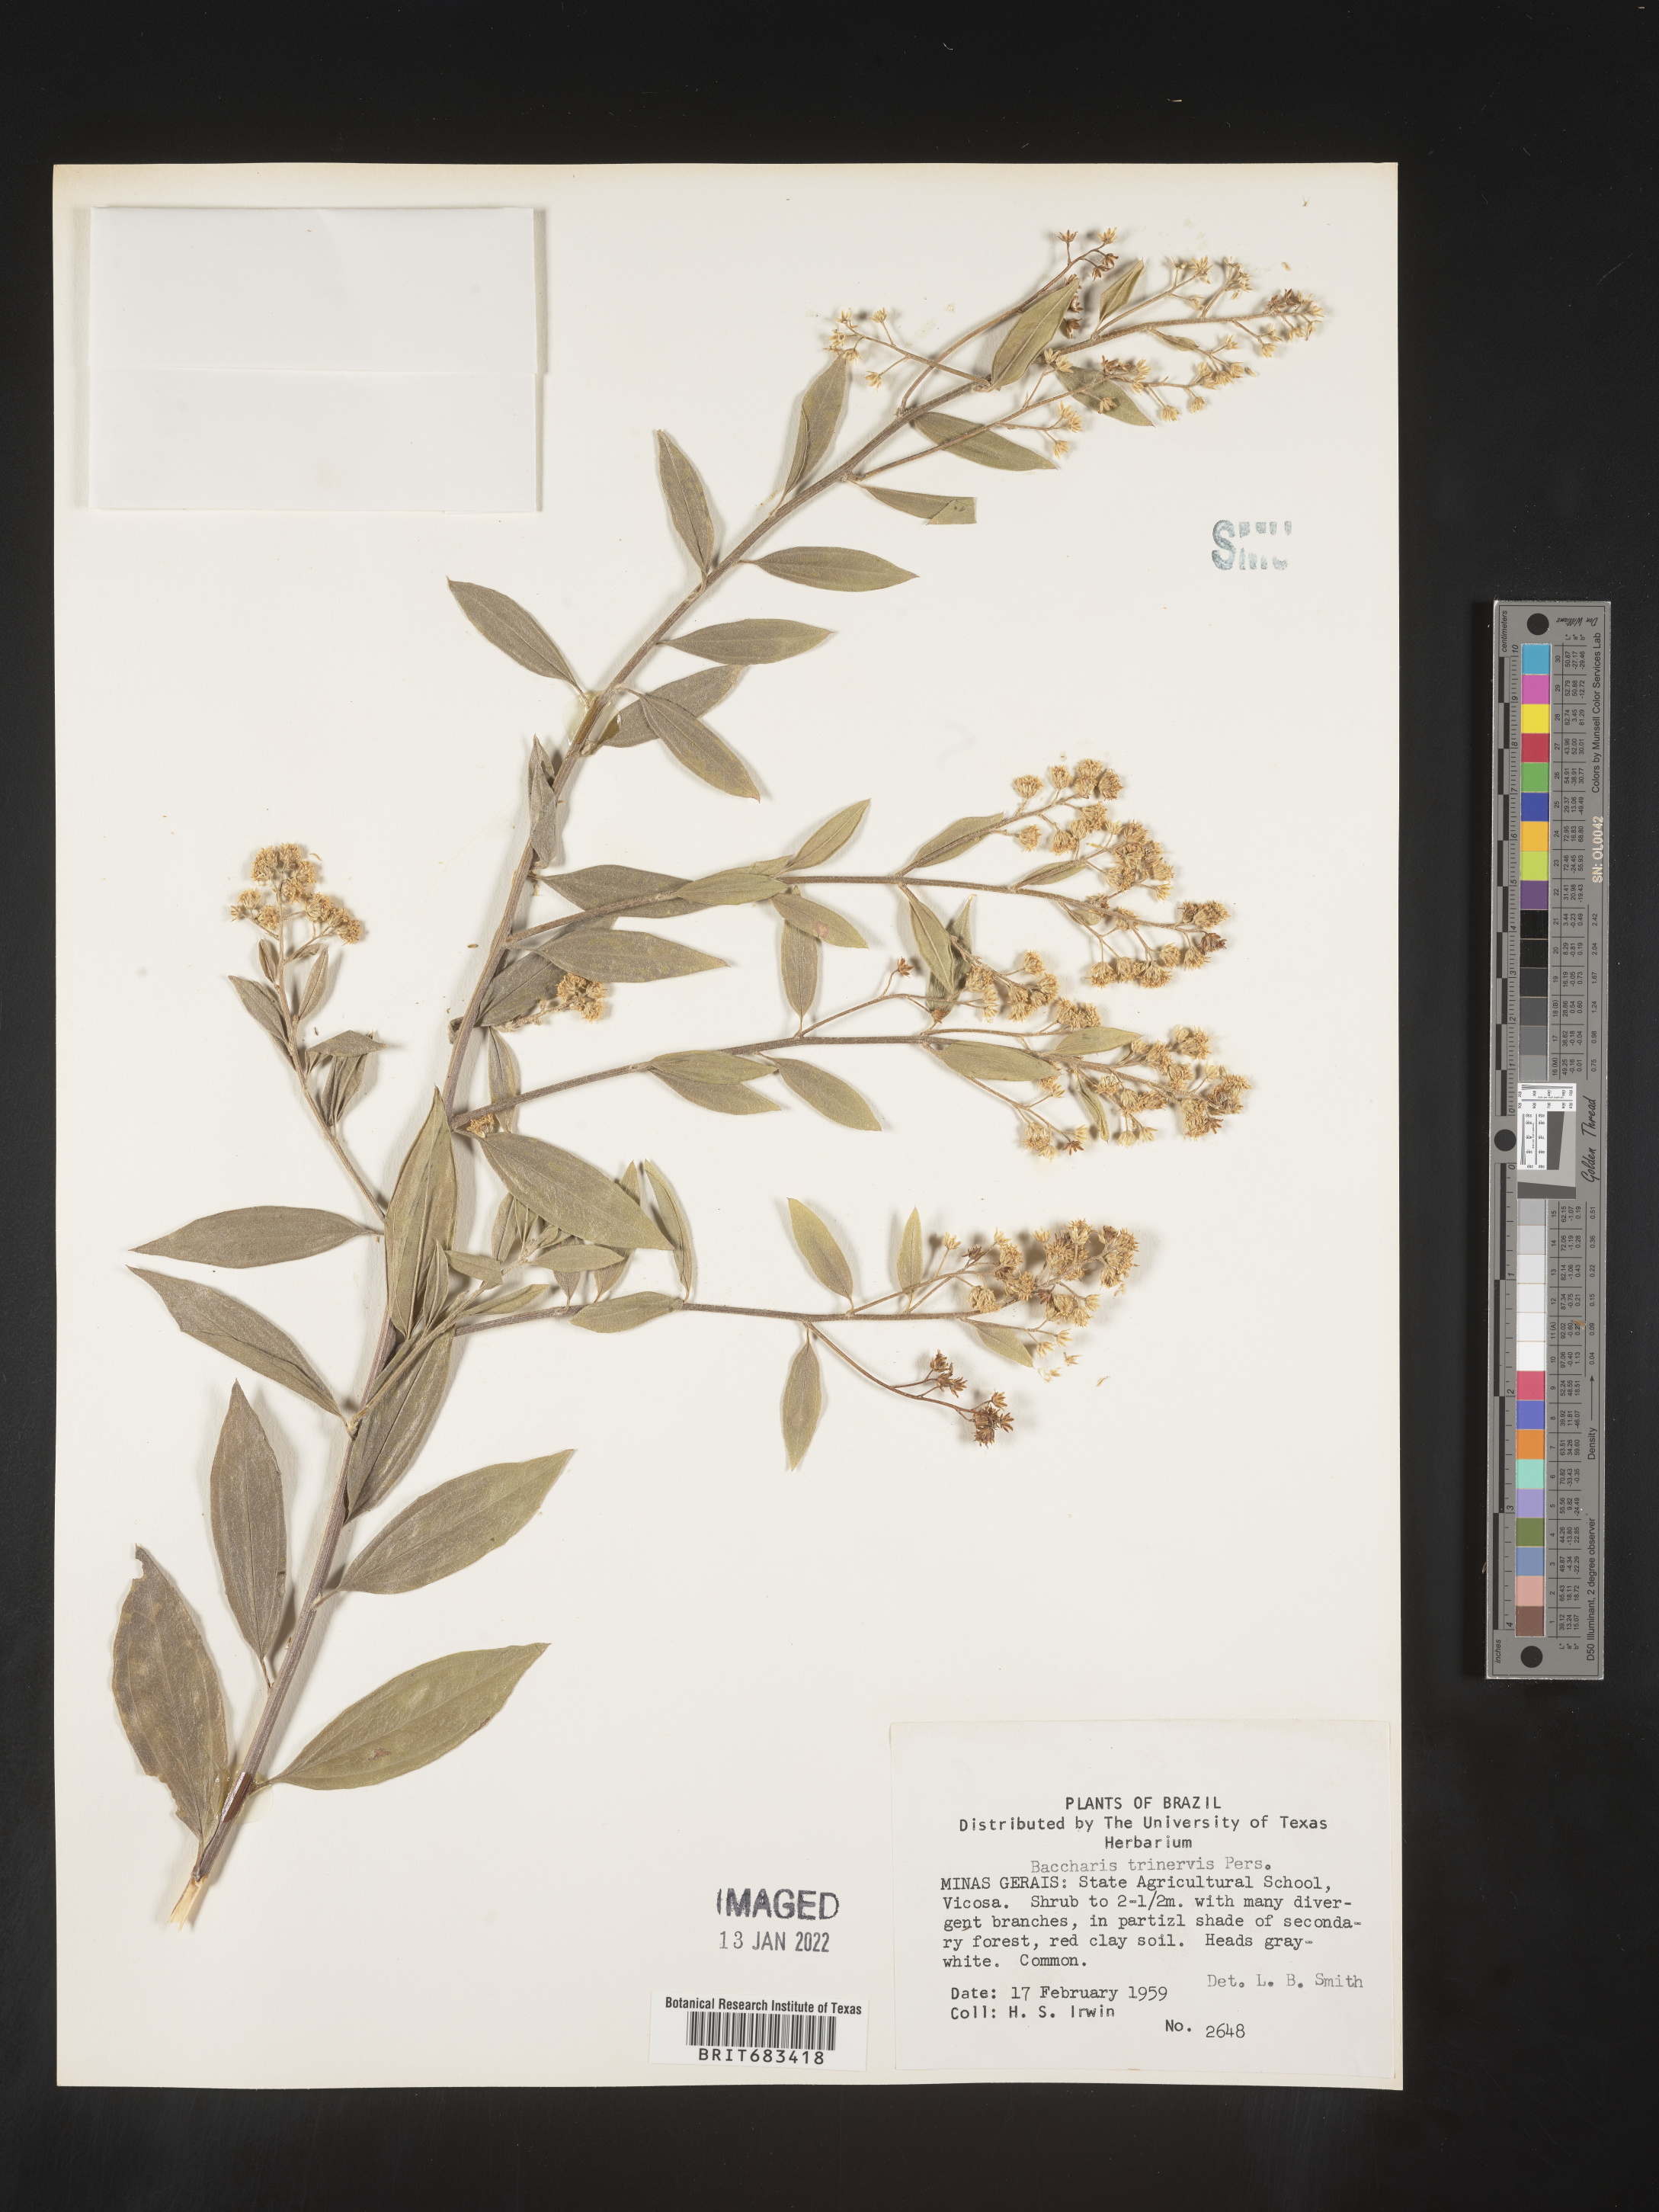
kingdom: Plantae
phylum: Tracheophyta
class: Magnoliopsida
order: Asterales
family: Asteraceae
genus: Baccharis
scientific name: Baccharis trinervis
